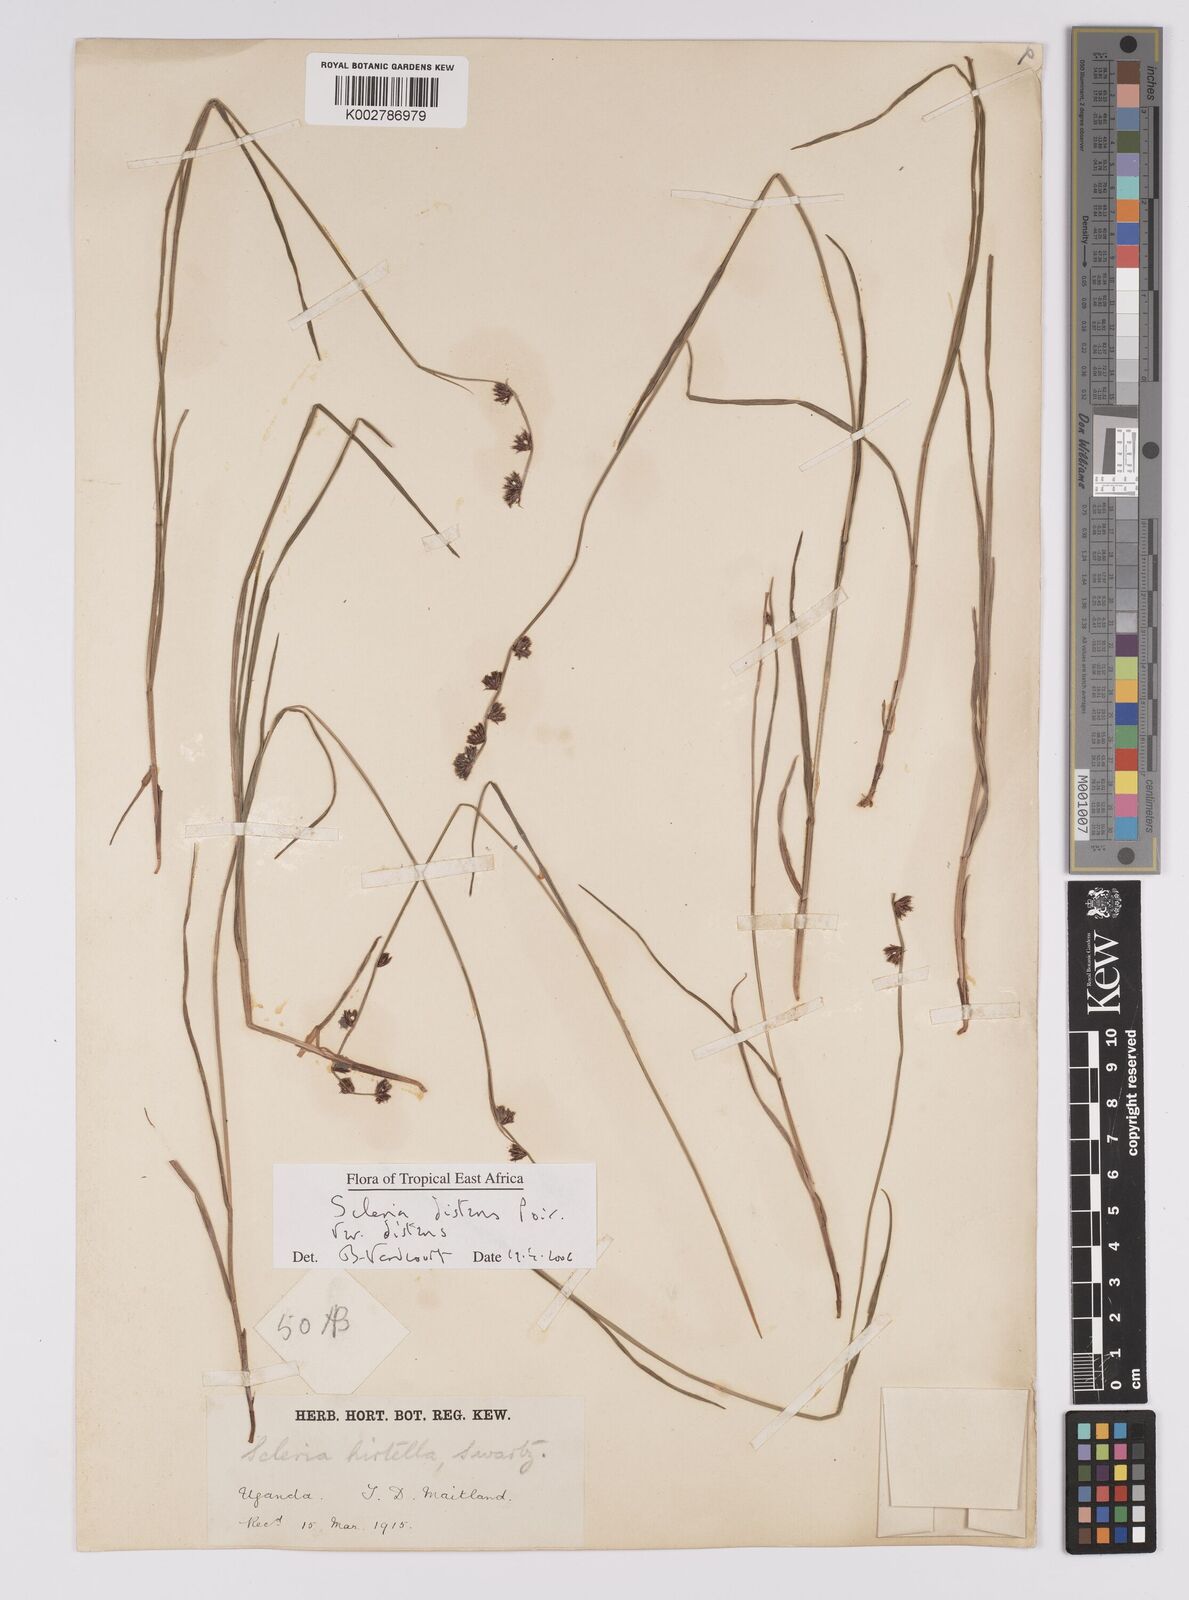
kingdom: Plantae
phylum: Tracheophyta
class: Liliopsida
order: Poales
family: Cyperaceae
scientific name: Cyperaceae
